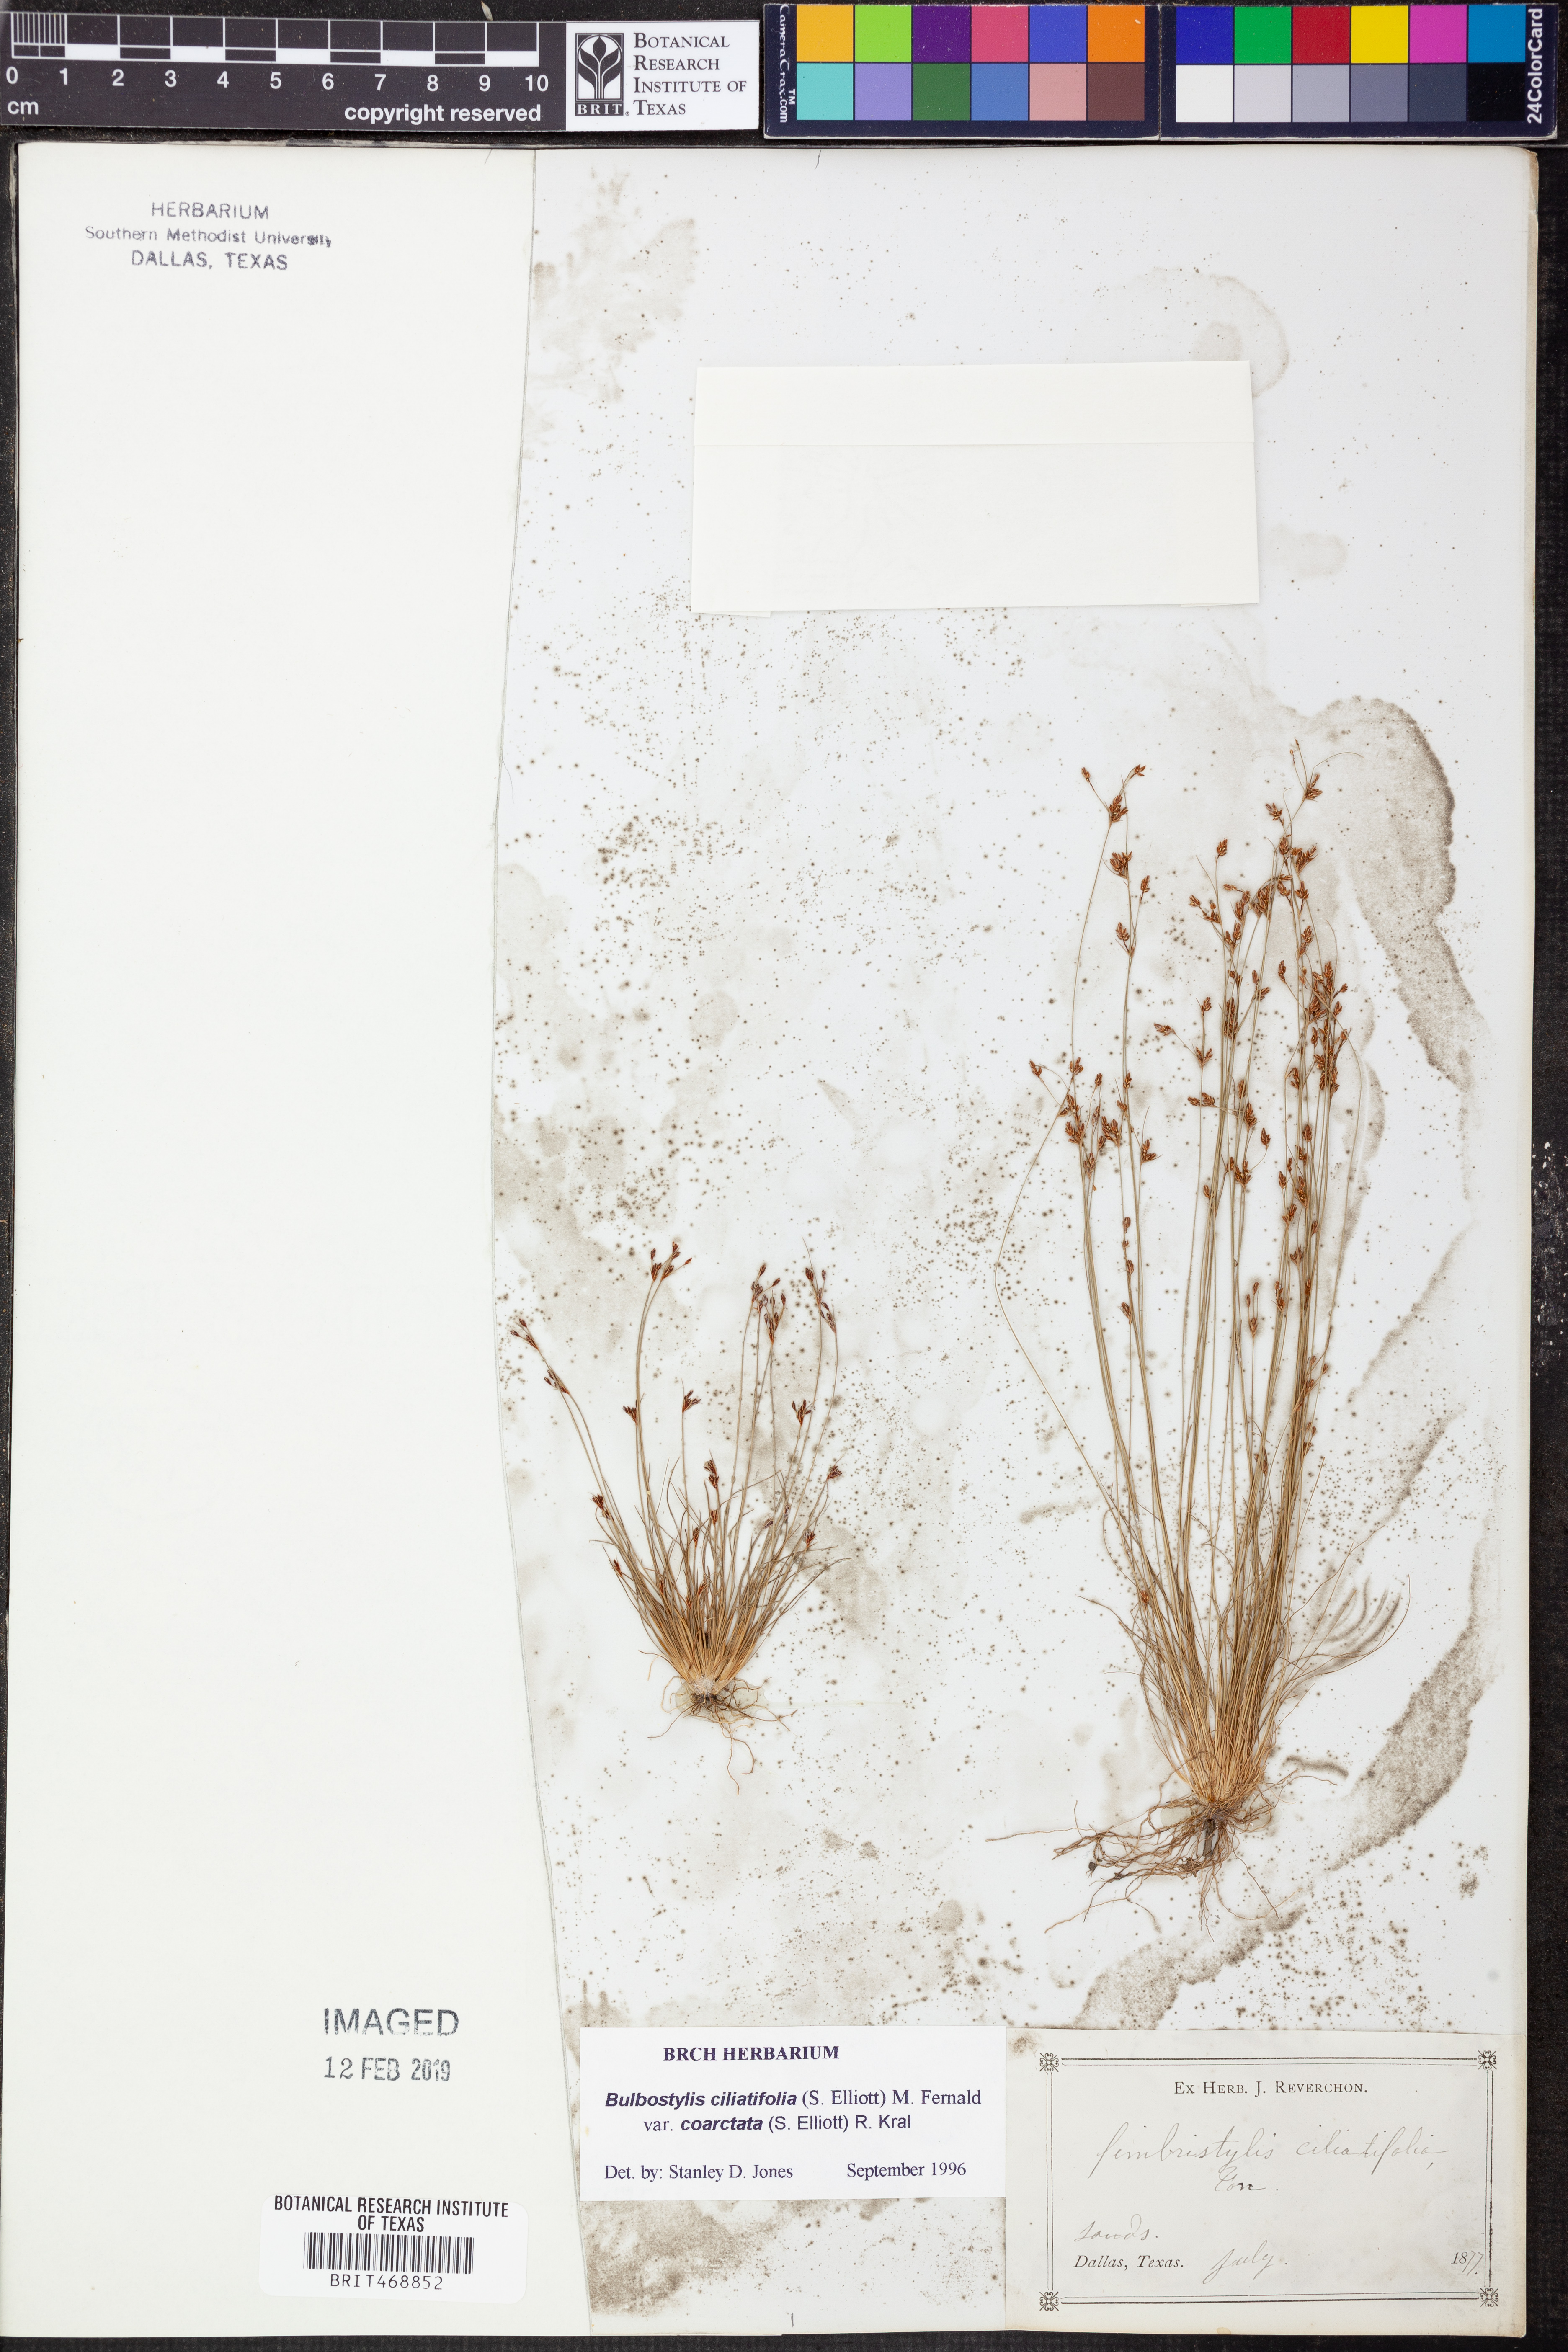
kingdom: Plantae
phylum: Tracheophyta
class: Liliopsida
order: Poales
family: Cyperaceae
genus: Bulbostylis
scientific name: Bulbostylis ciliatifolia
